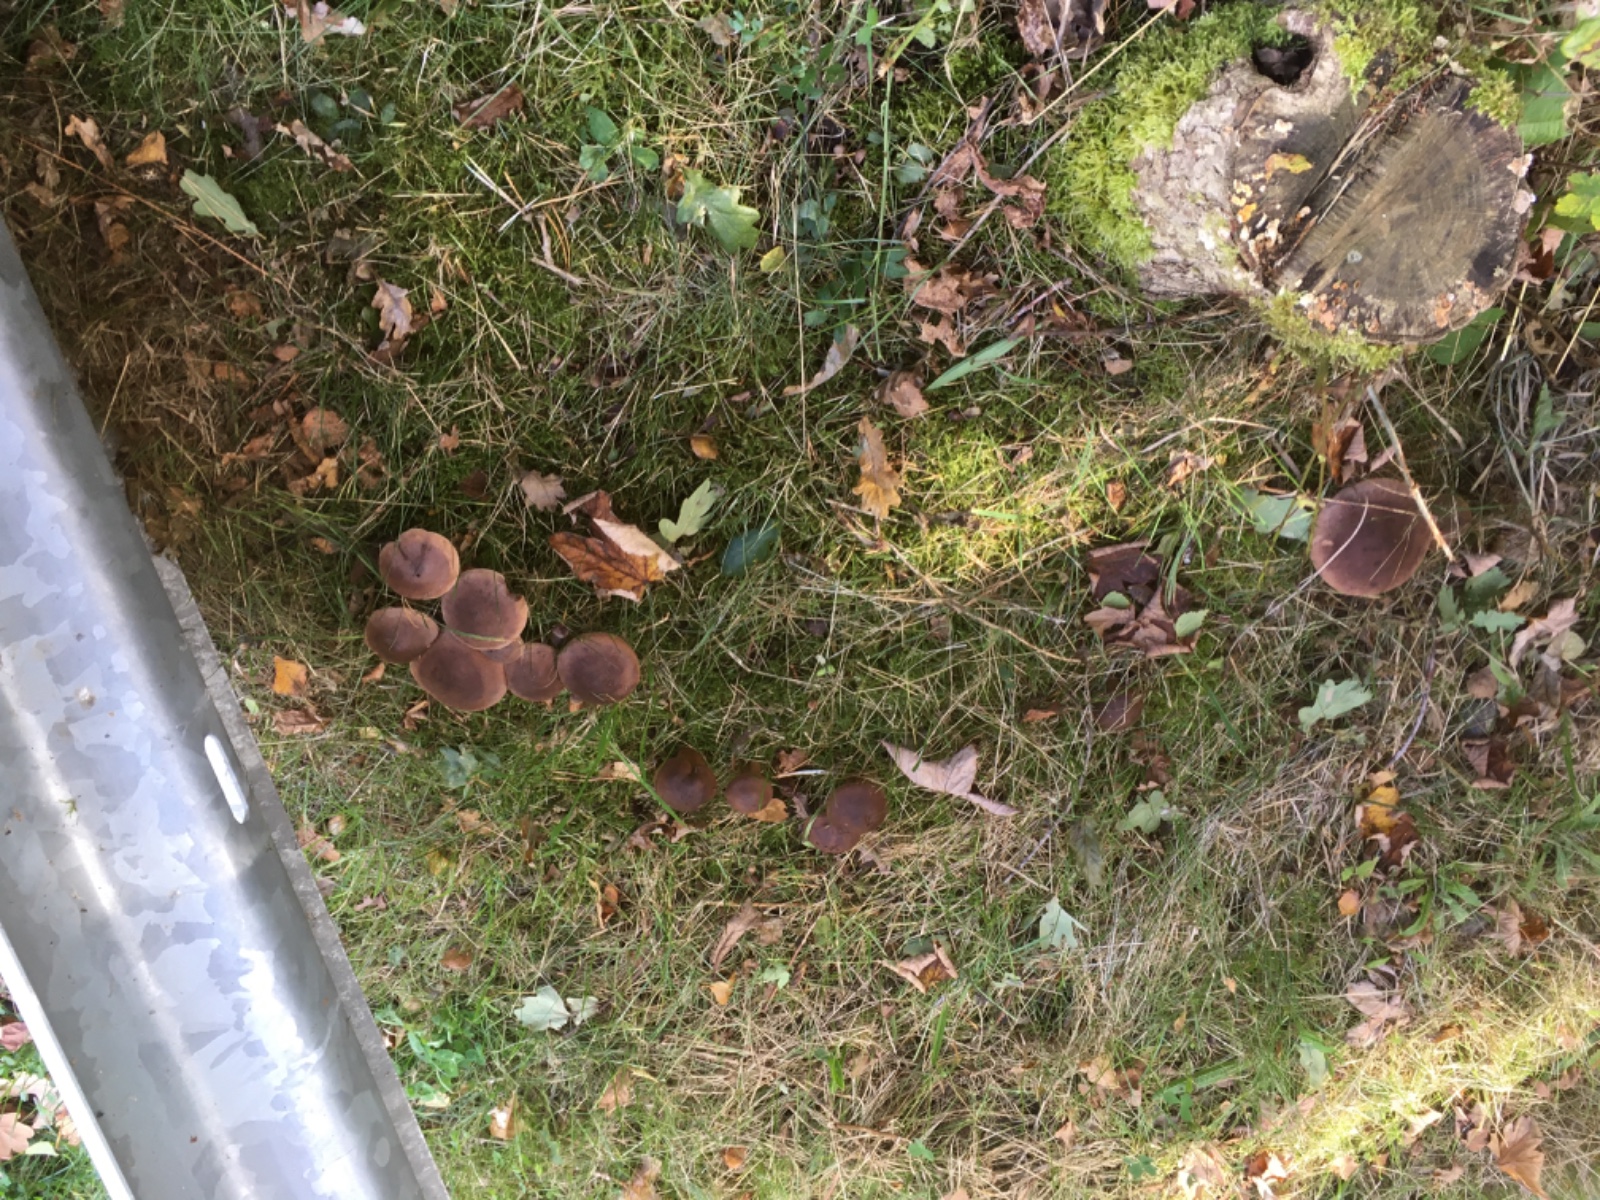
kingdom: Fungi
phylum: Basidiomycota
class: Agaricomycetes
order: Agaricales
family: Tricholomataceae
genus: Tricholoma
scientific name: Tricholoma imbricatum
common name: skællet ridderhat
